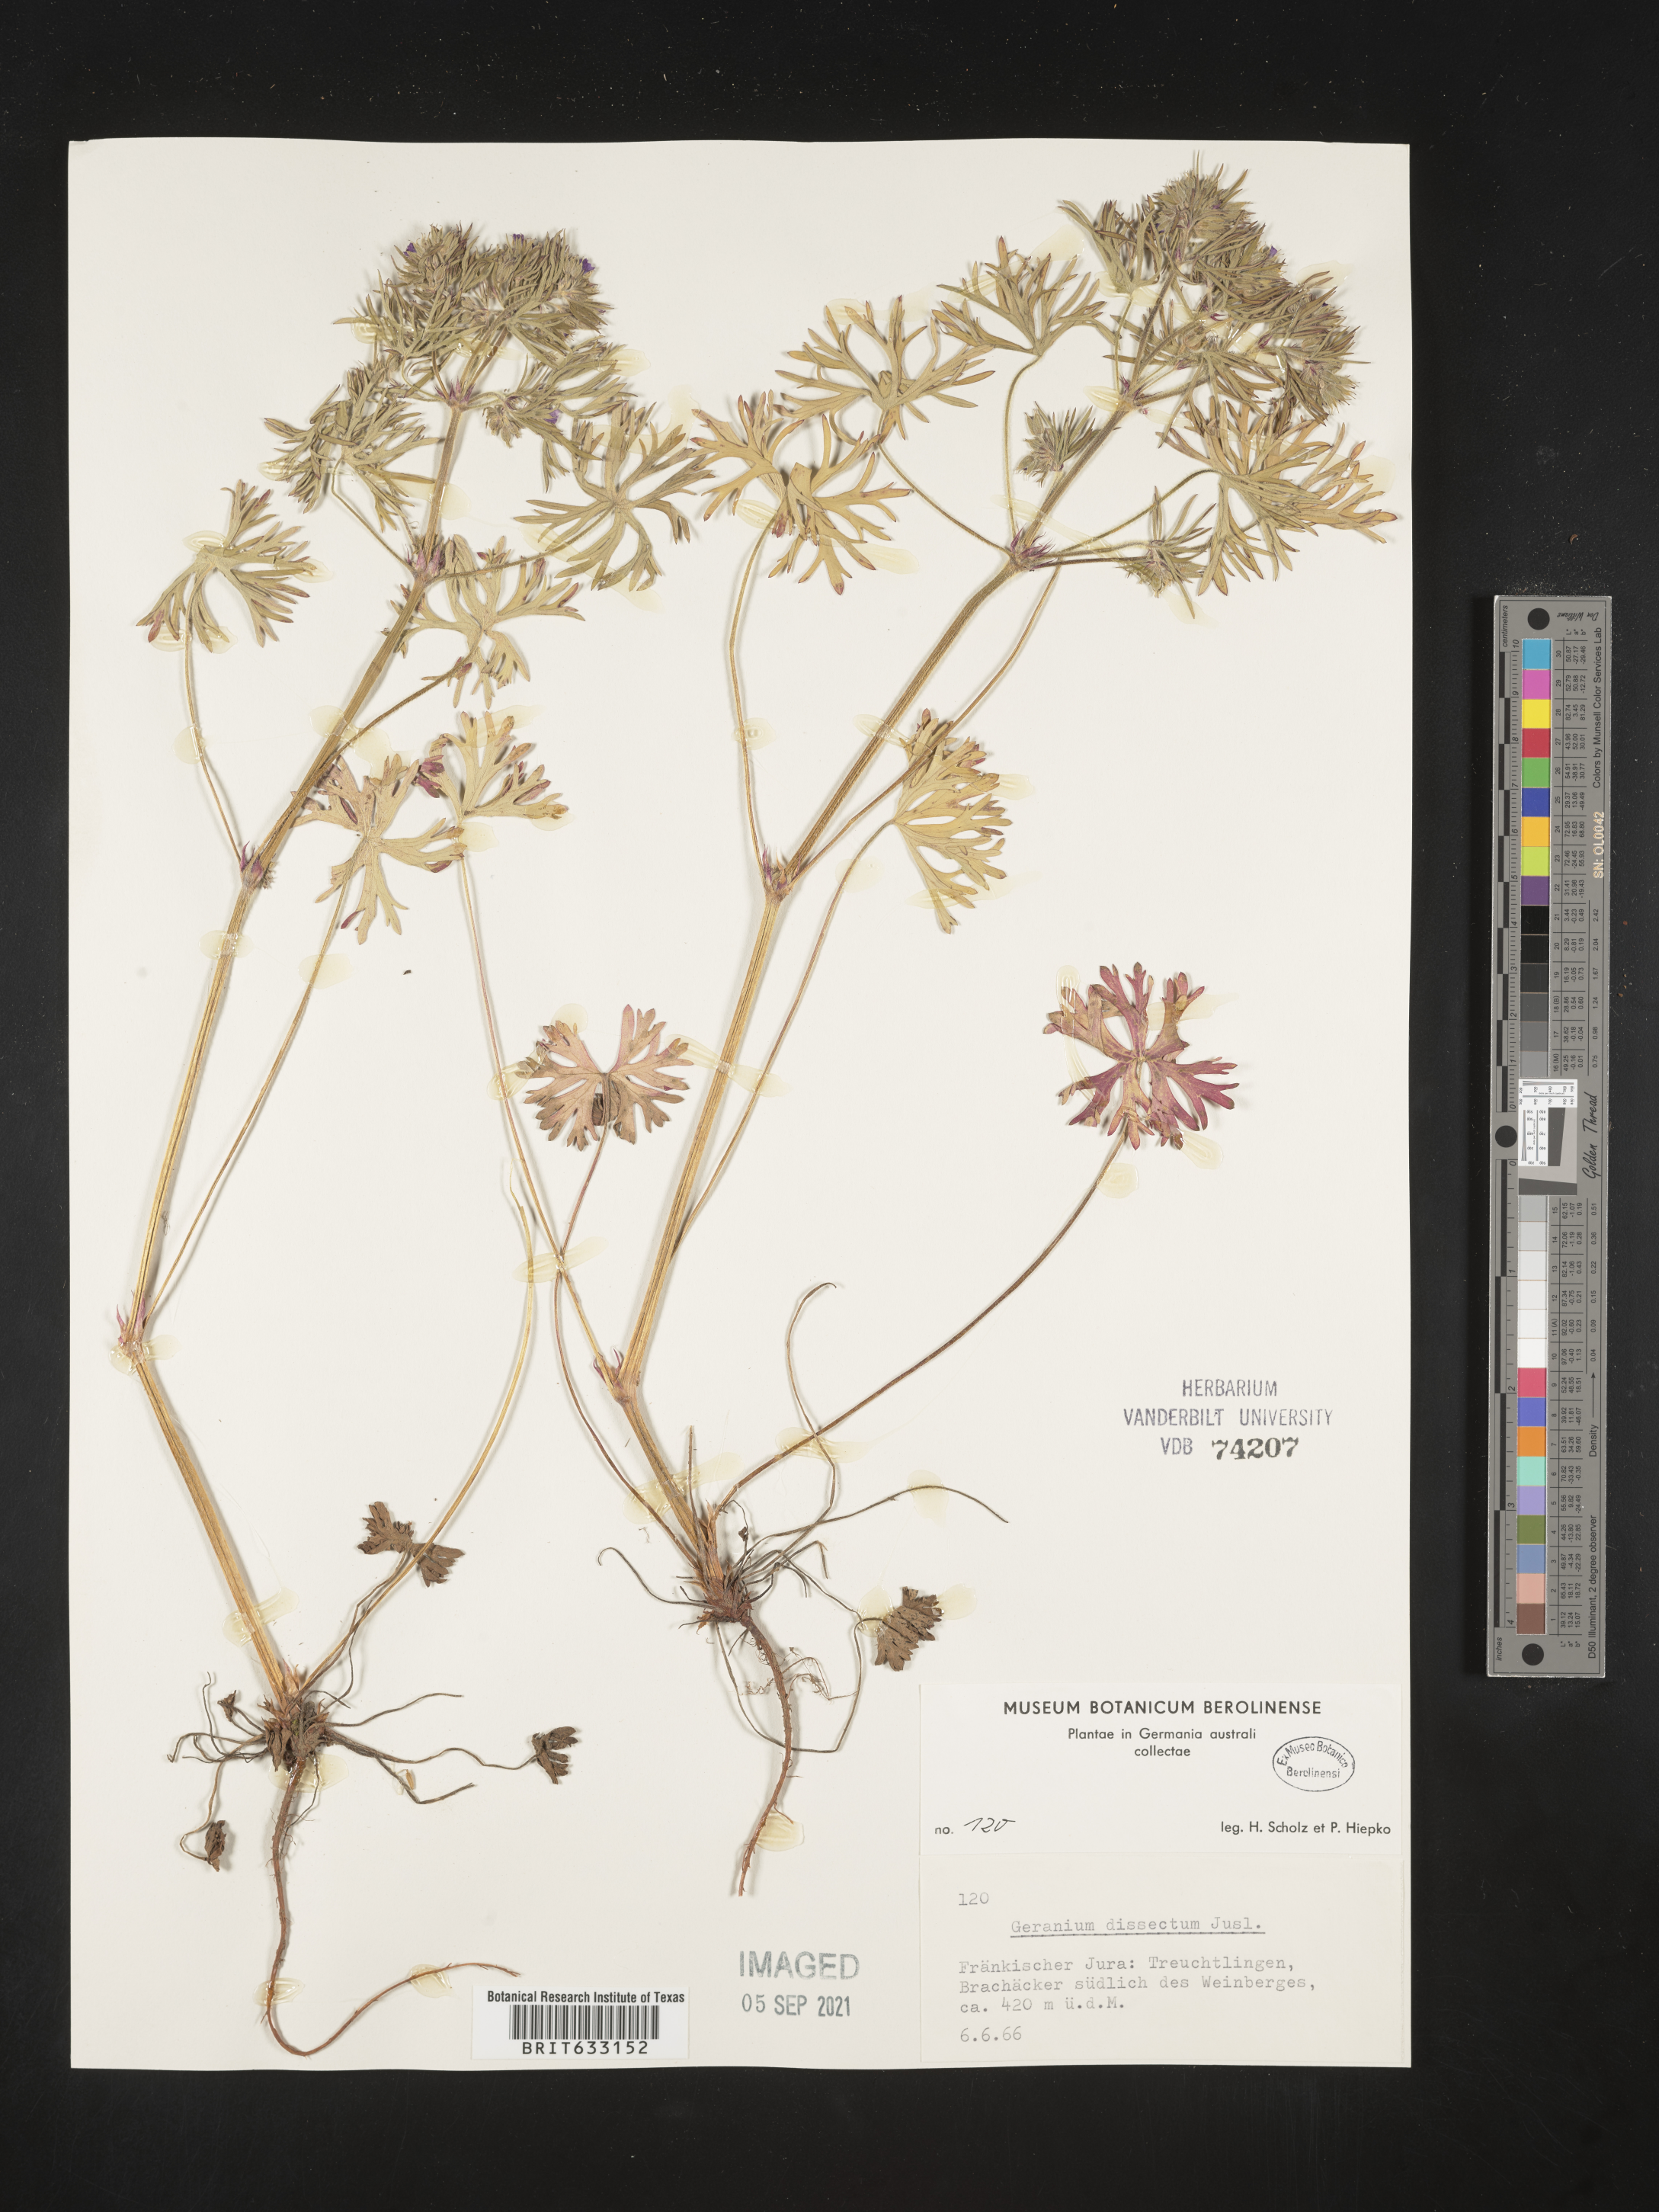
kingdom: Plantae
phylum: Tracheophyta
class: Magnoliopsida
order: Geraniales
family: Geraniaceae
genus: Geranium
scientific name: Geranium
